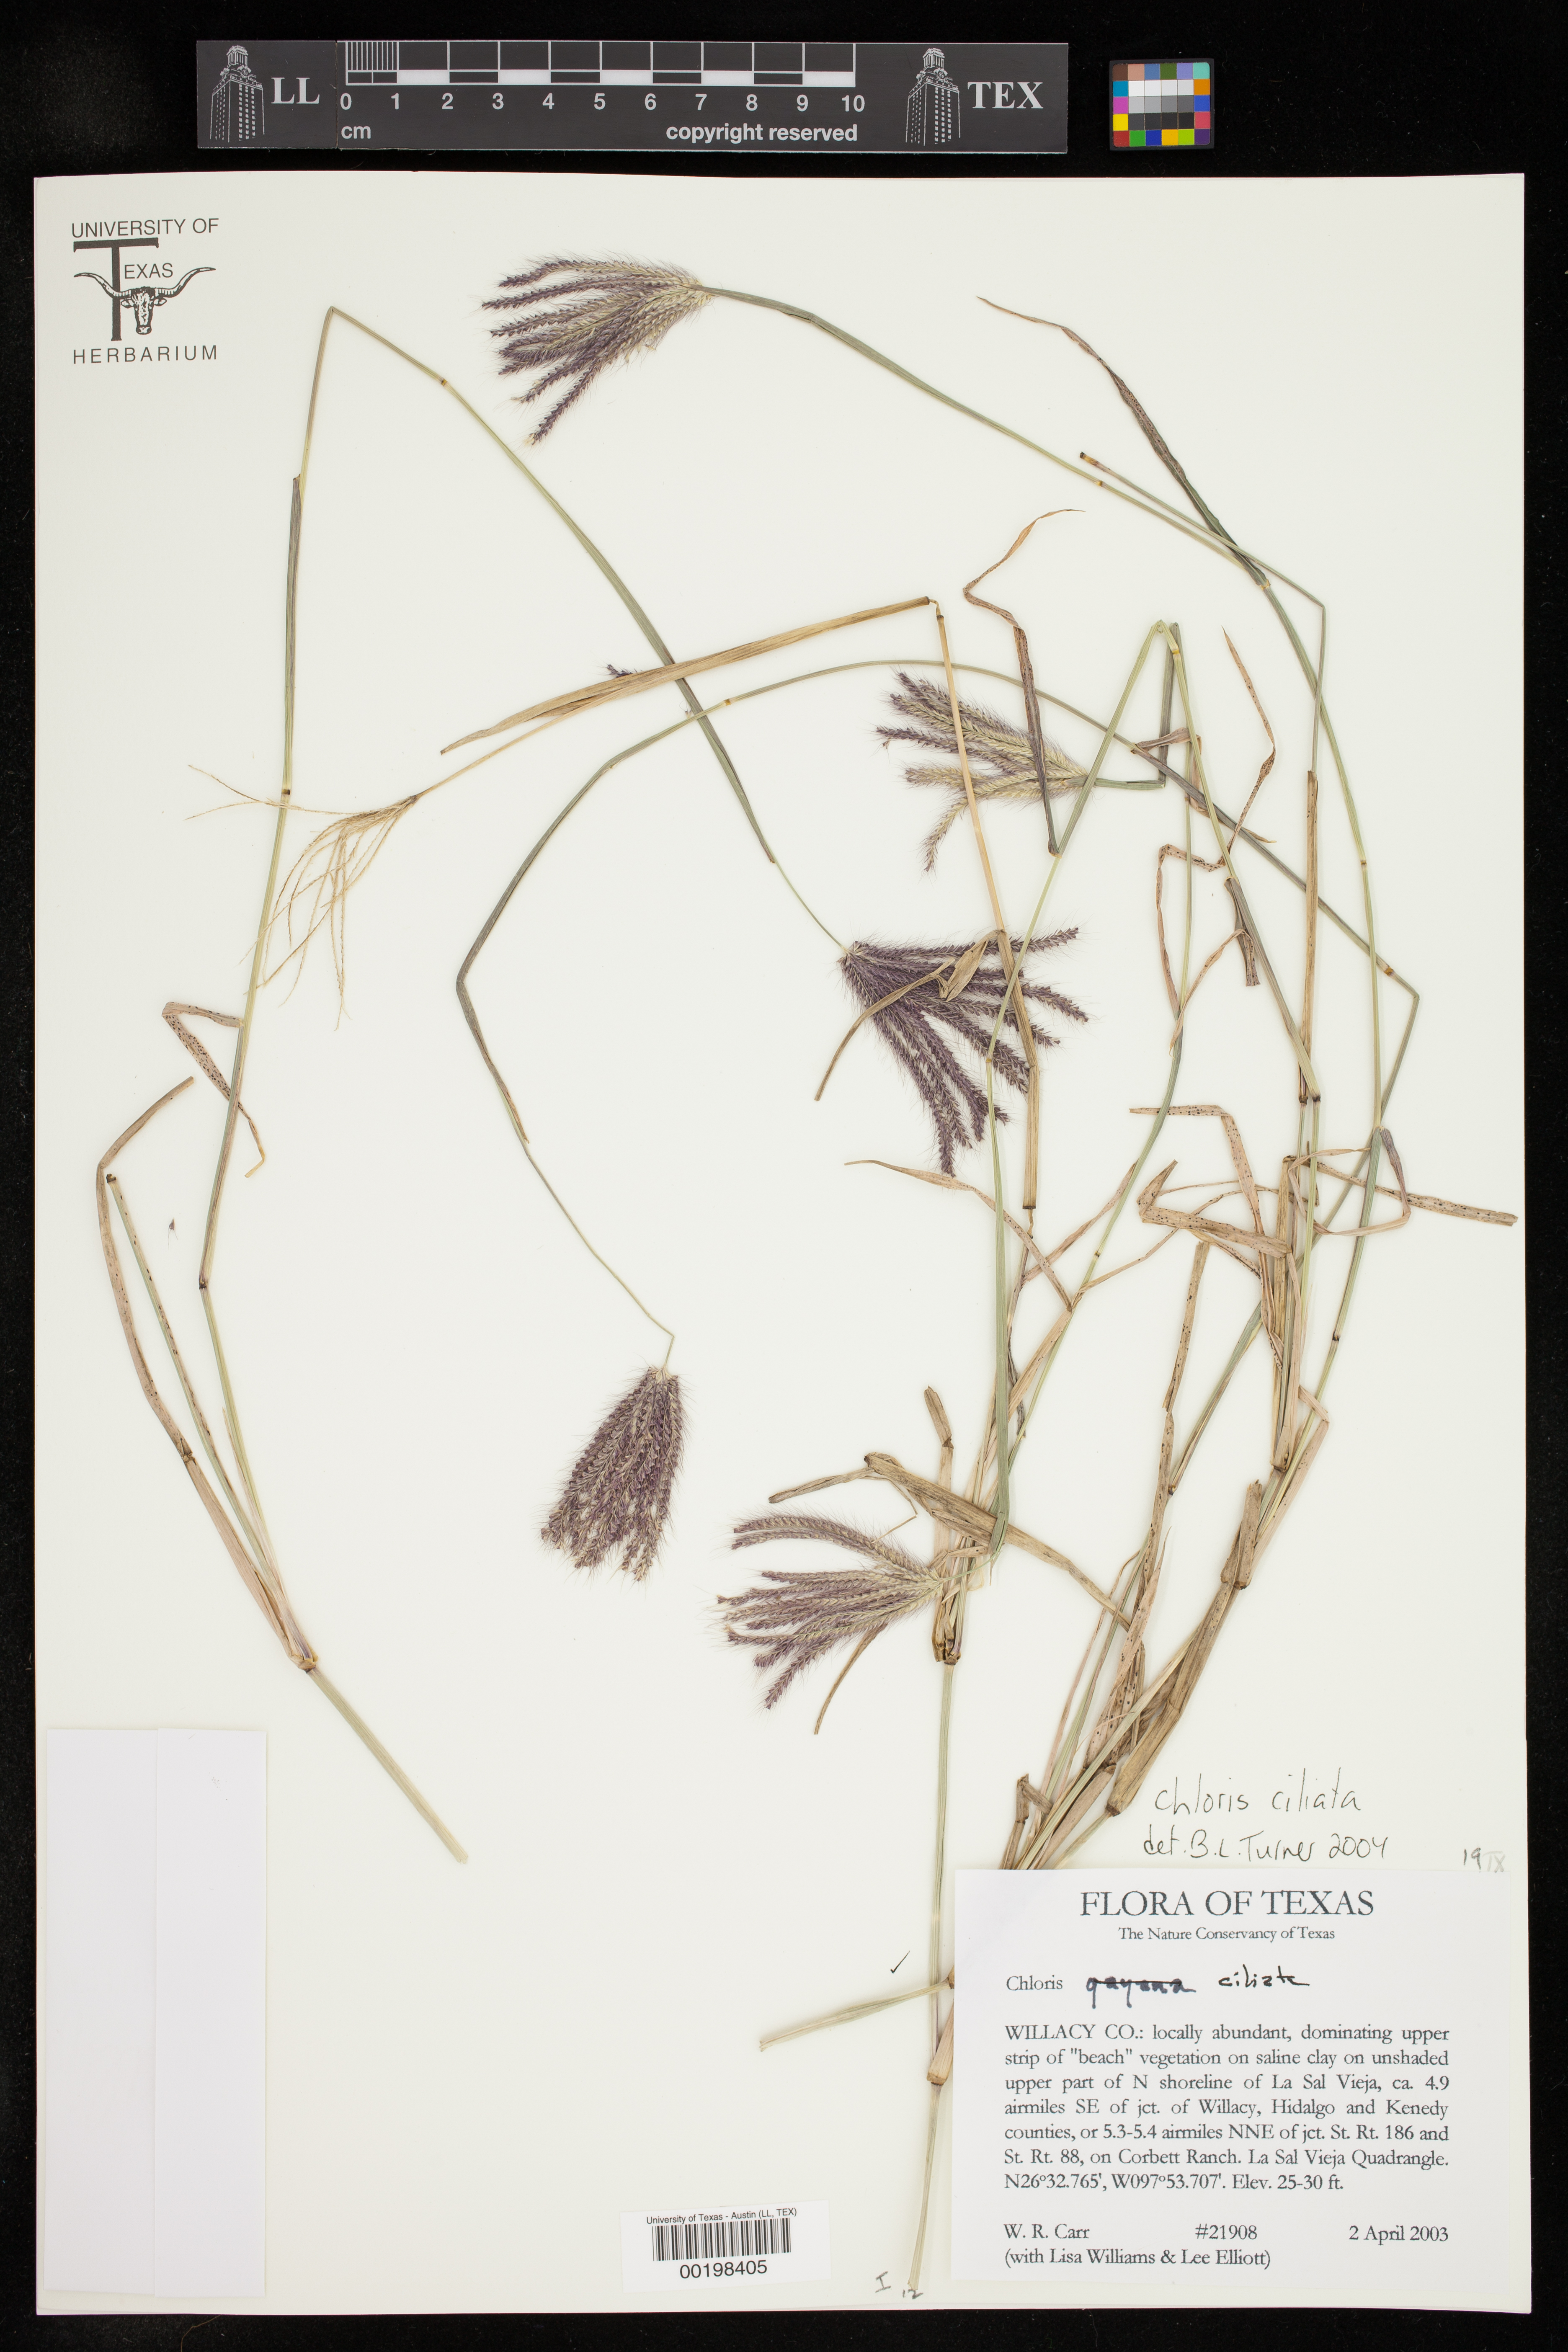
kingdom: Plantae
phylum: Tracheophyta
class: Liliopsida
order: Poales
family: Poaceae
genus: Stapfochloa
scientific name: Stapfochloa ciliata
